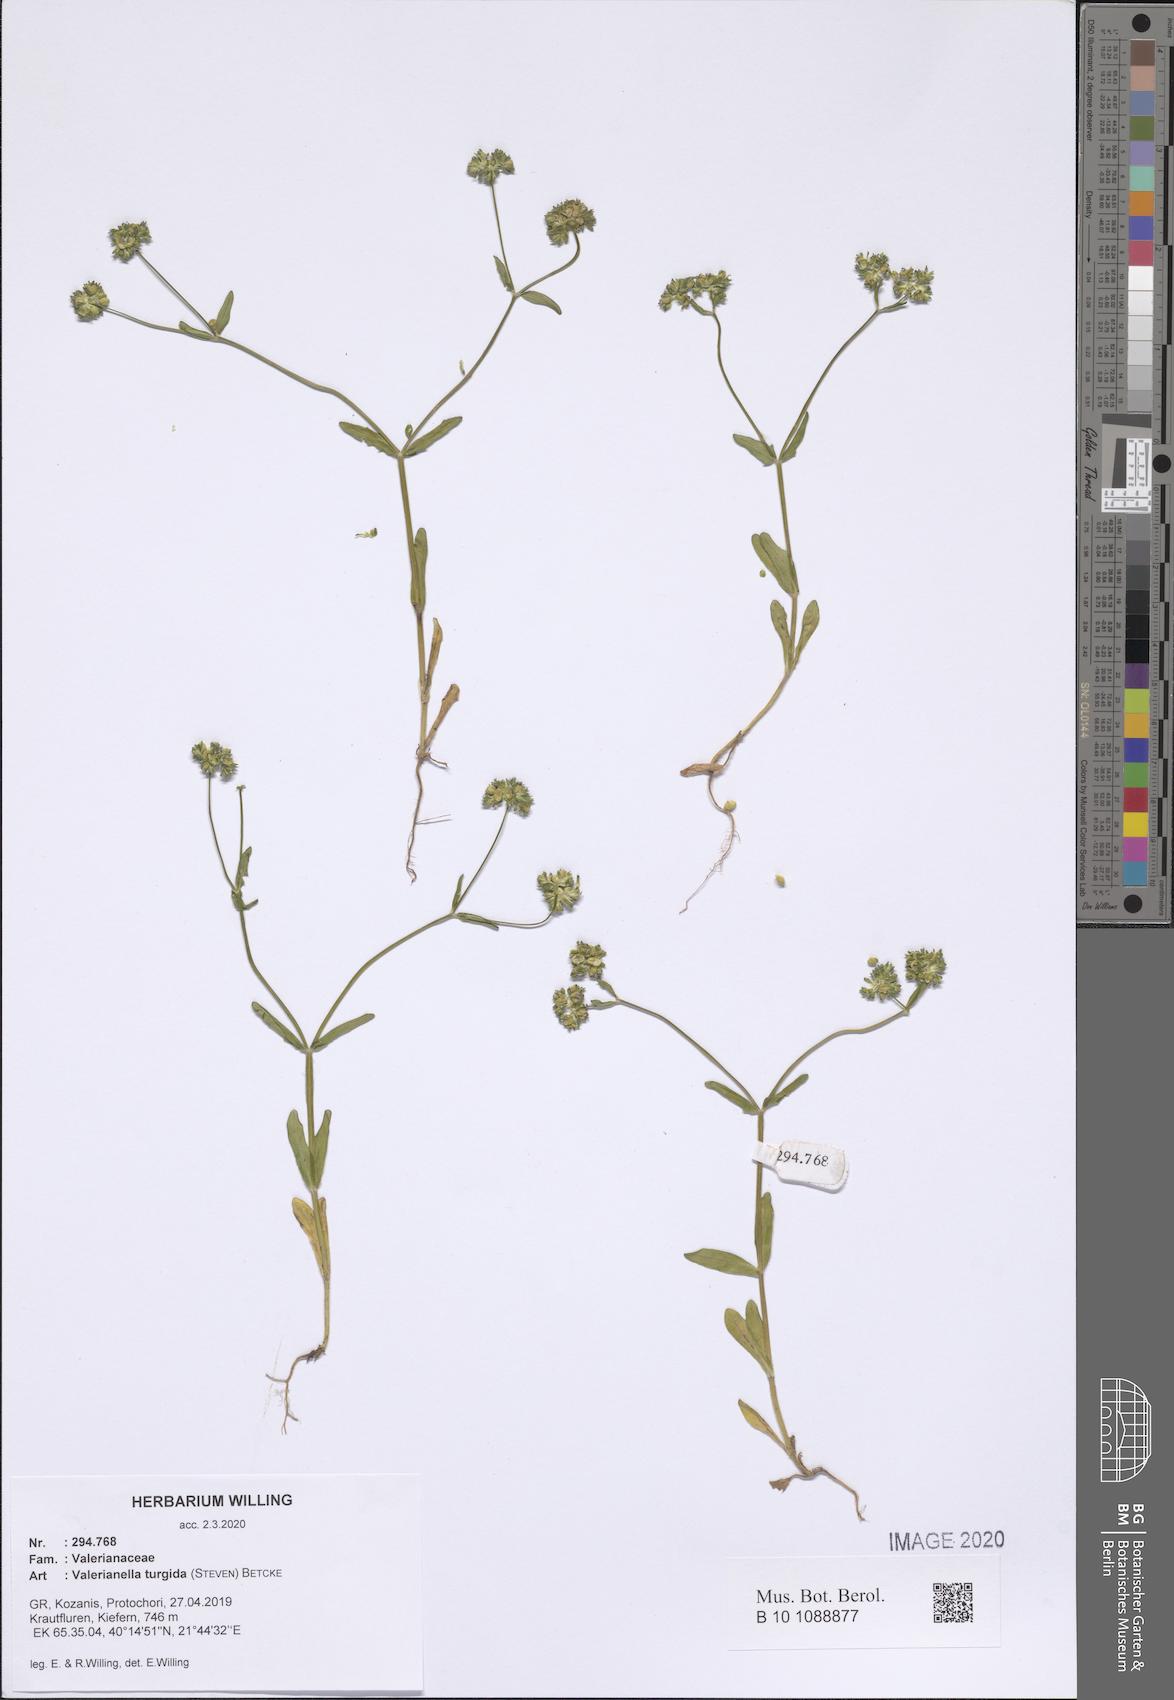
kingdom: Plantae
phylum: Tracheophyta
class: Magnoliopsida
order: Dipsacales
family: Caprifoliaceae
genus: Valerianella
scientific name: Valerianella turgida
